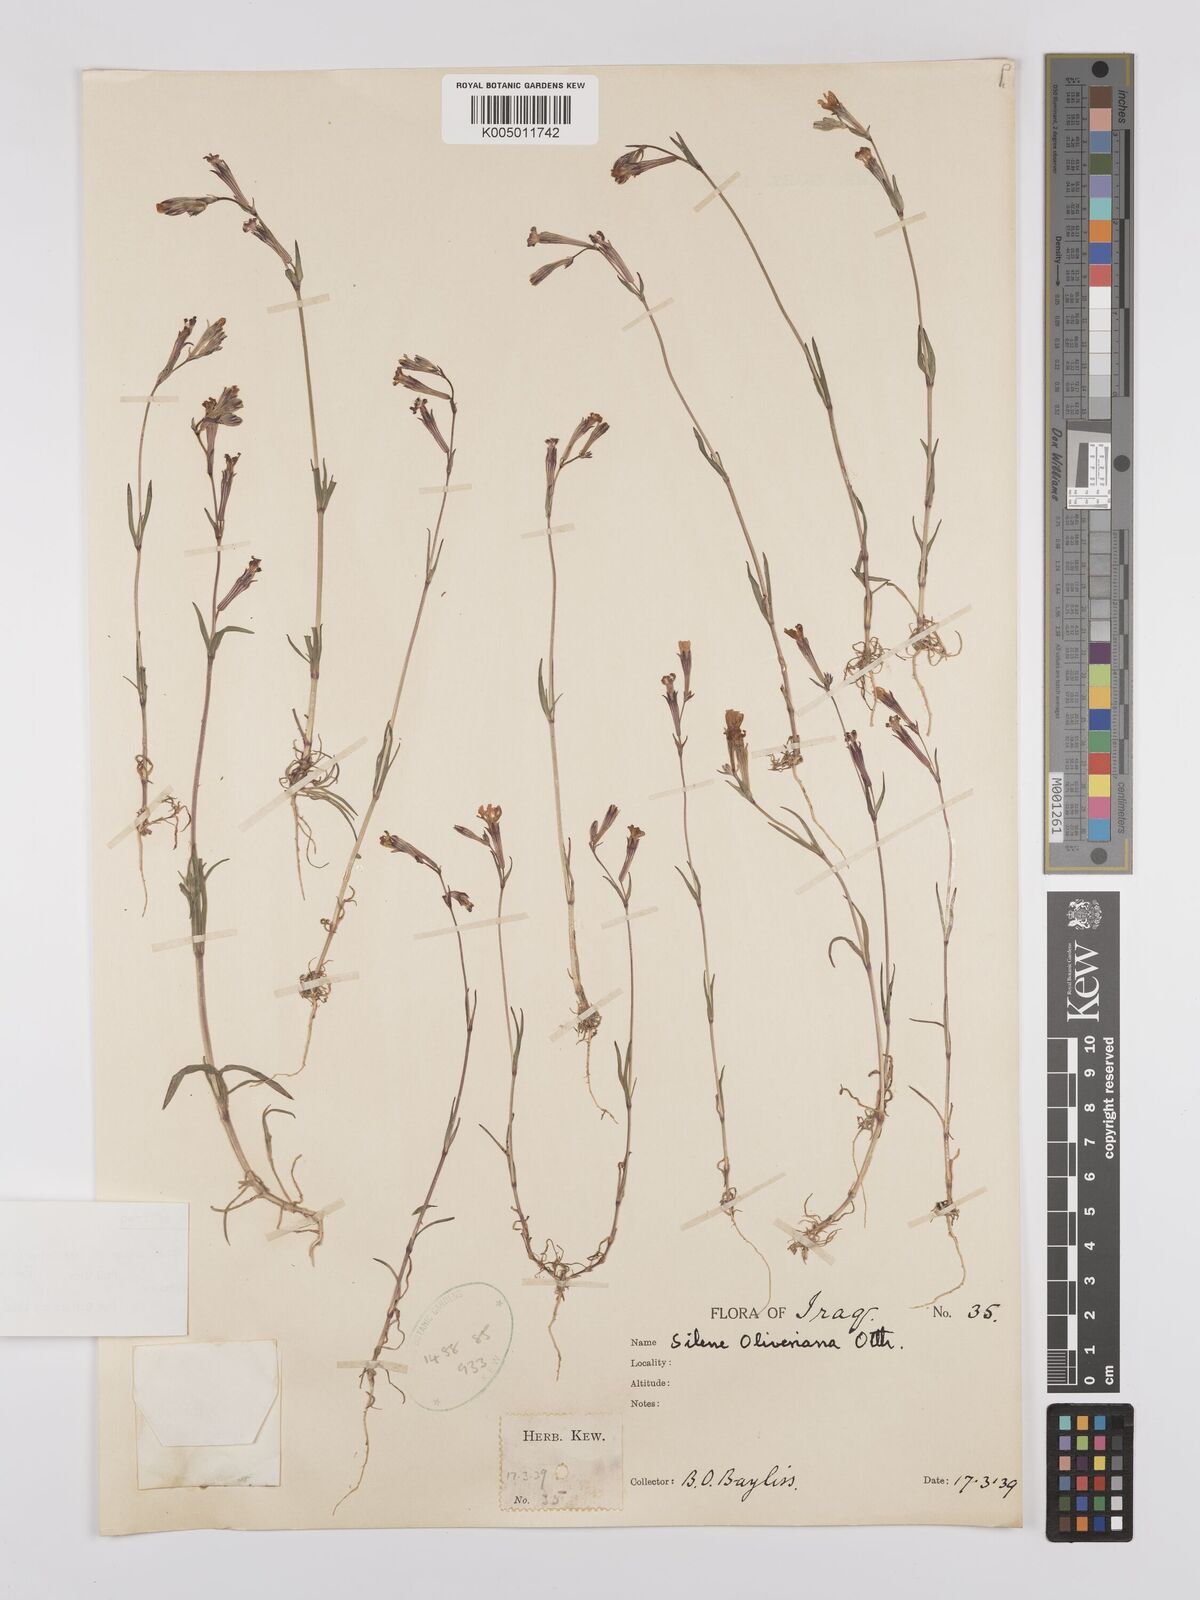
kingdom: Plantae
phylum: Tracheophyta
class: Magnoliopsida
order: Caryophyllales
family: Caryophyllaceae
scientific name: Caryophyllaceae
